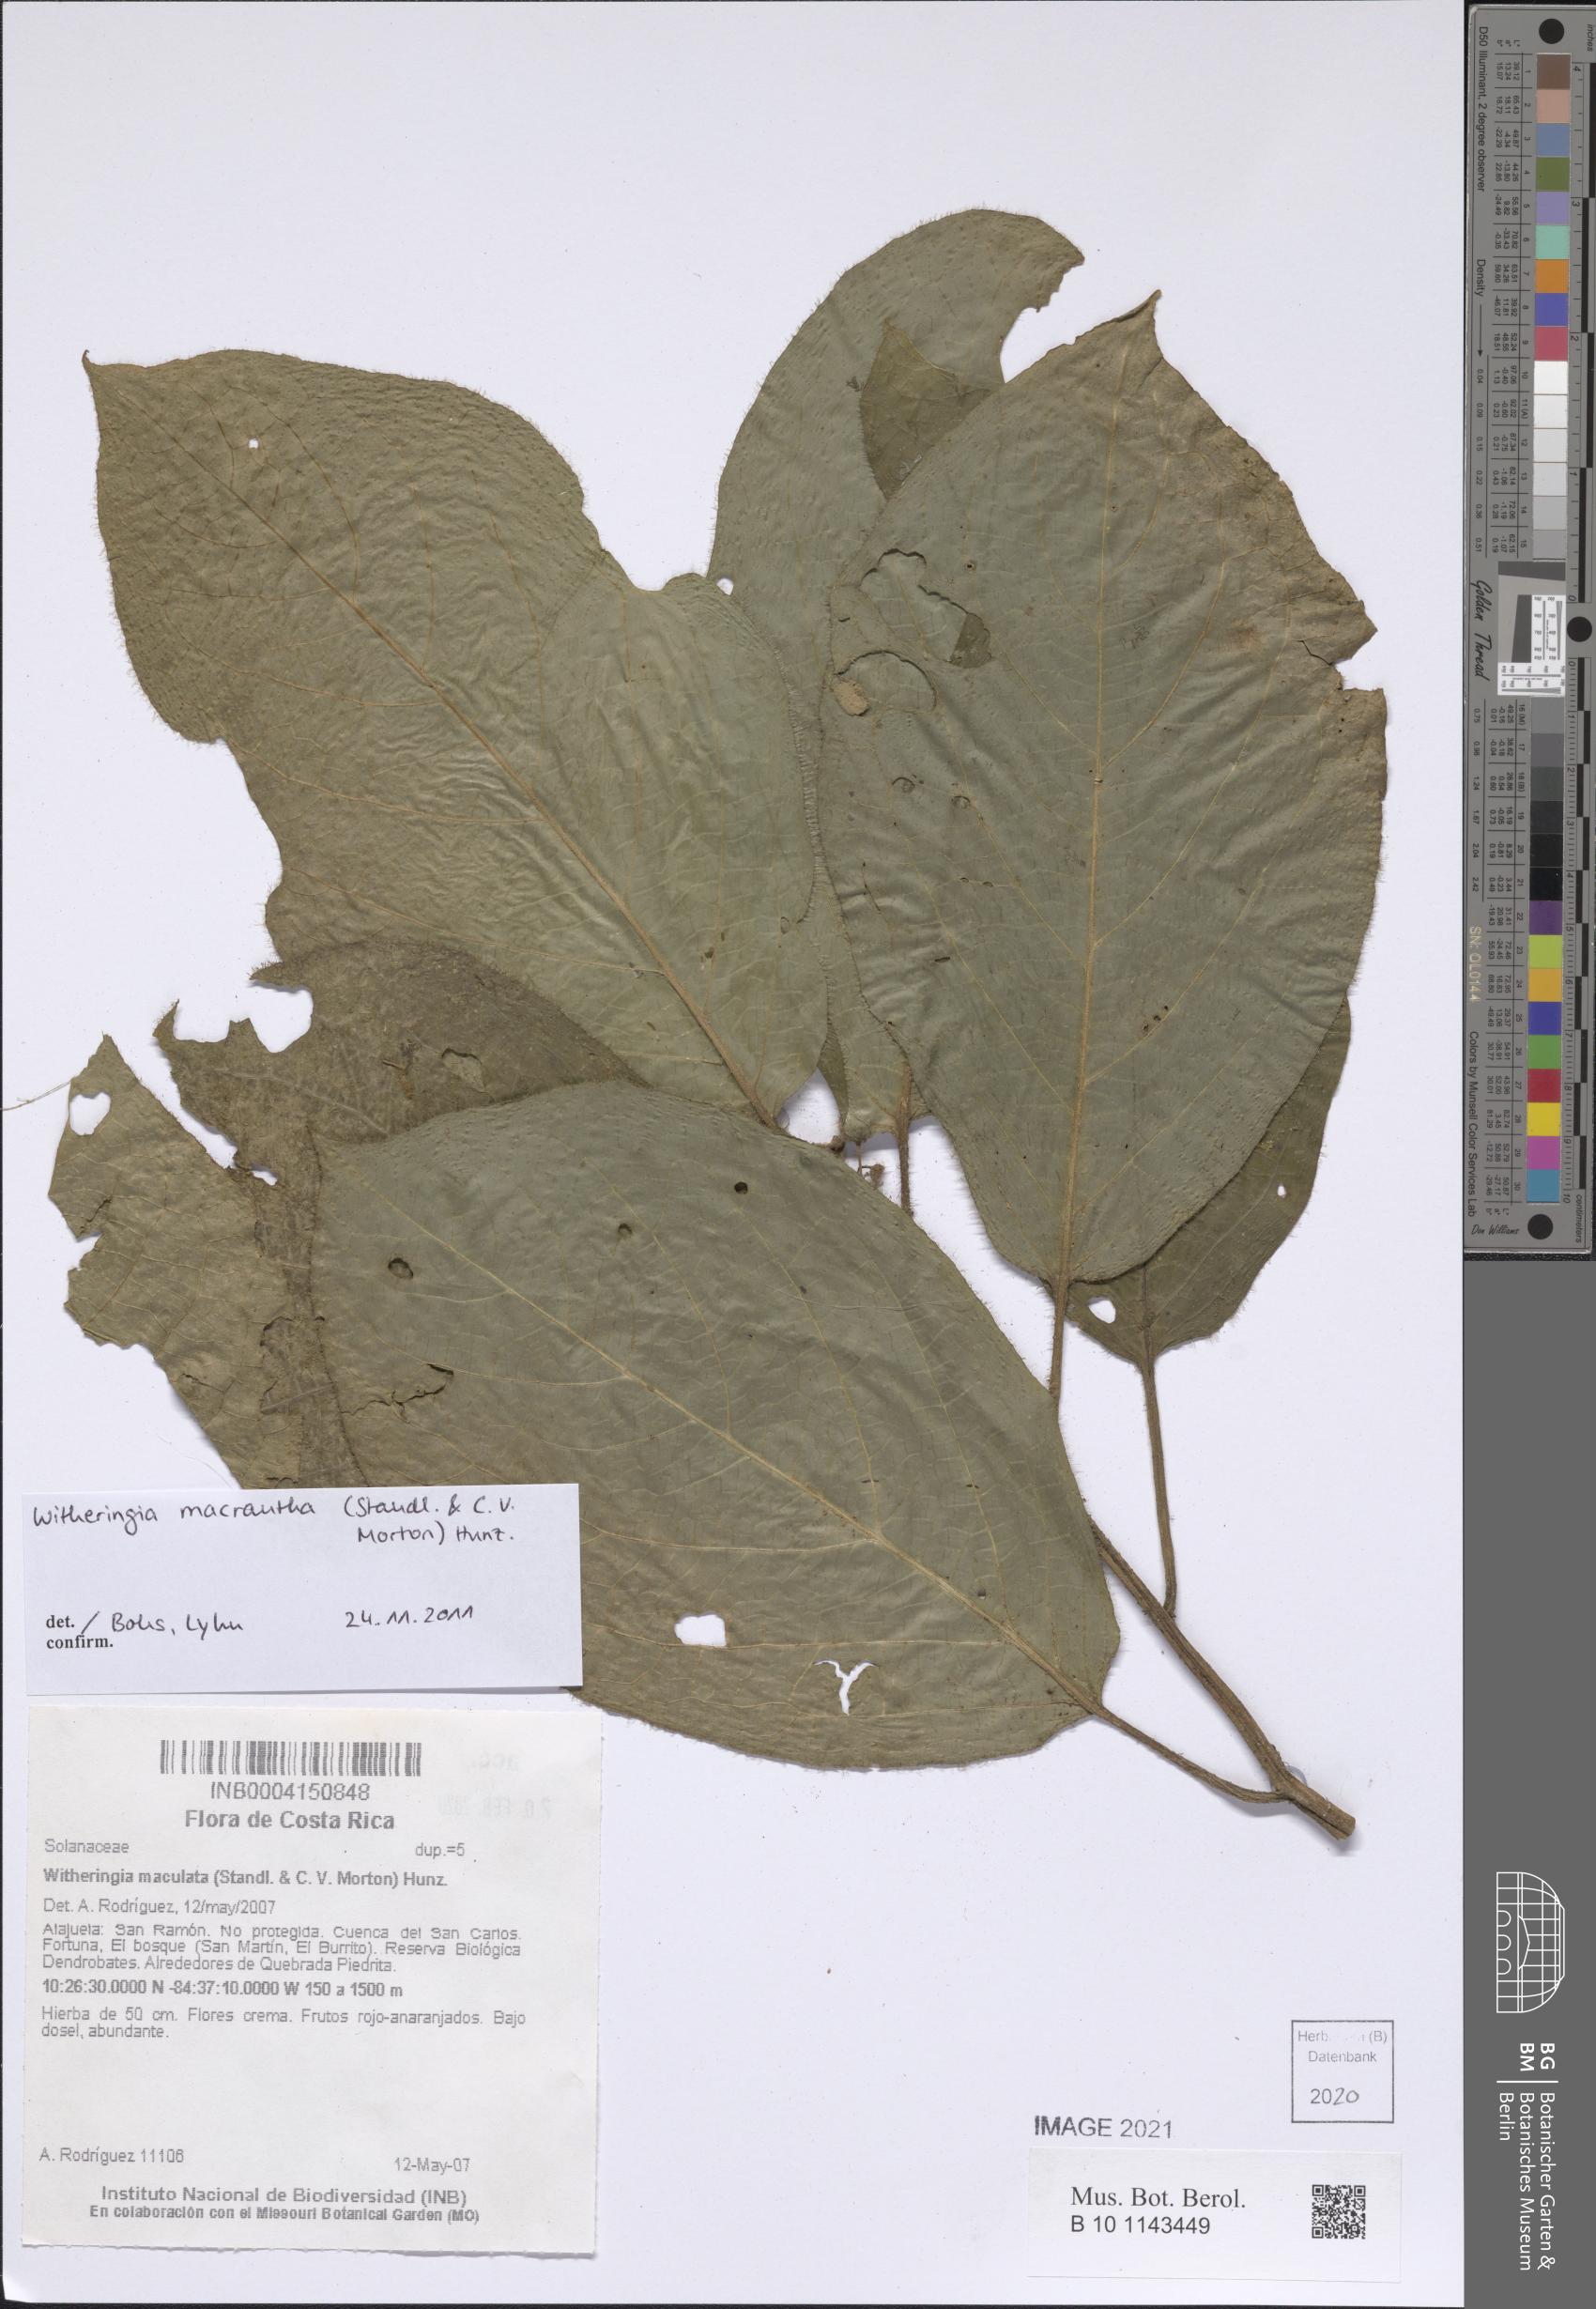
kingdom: Plantae
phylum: Tracheophyta
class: Magnoliopsida
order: Solanales
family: Solanaceae
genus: Witheringia
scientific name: Witheringia maculata
